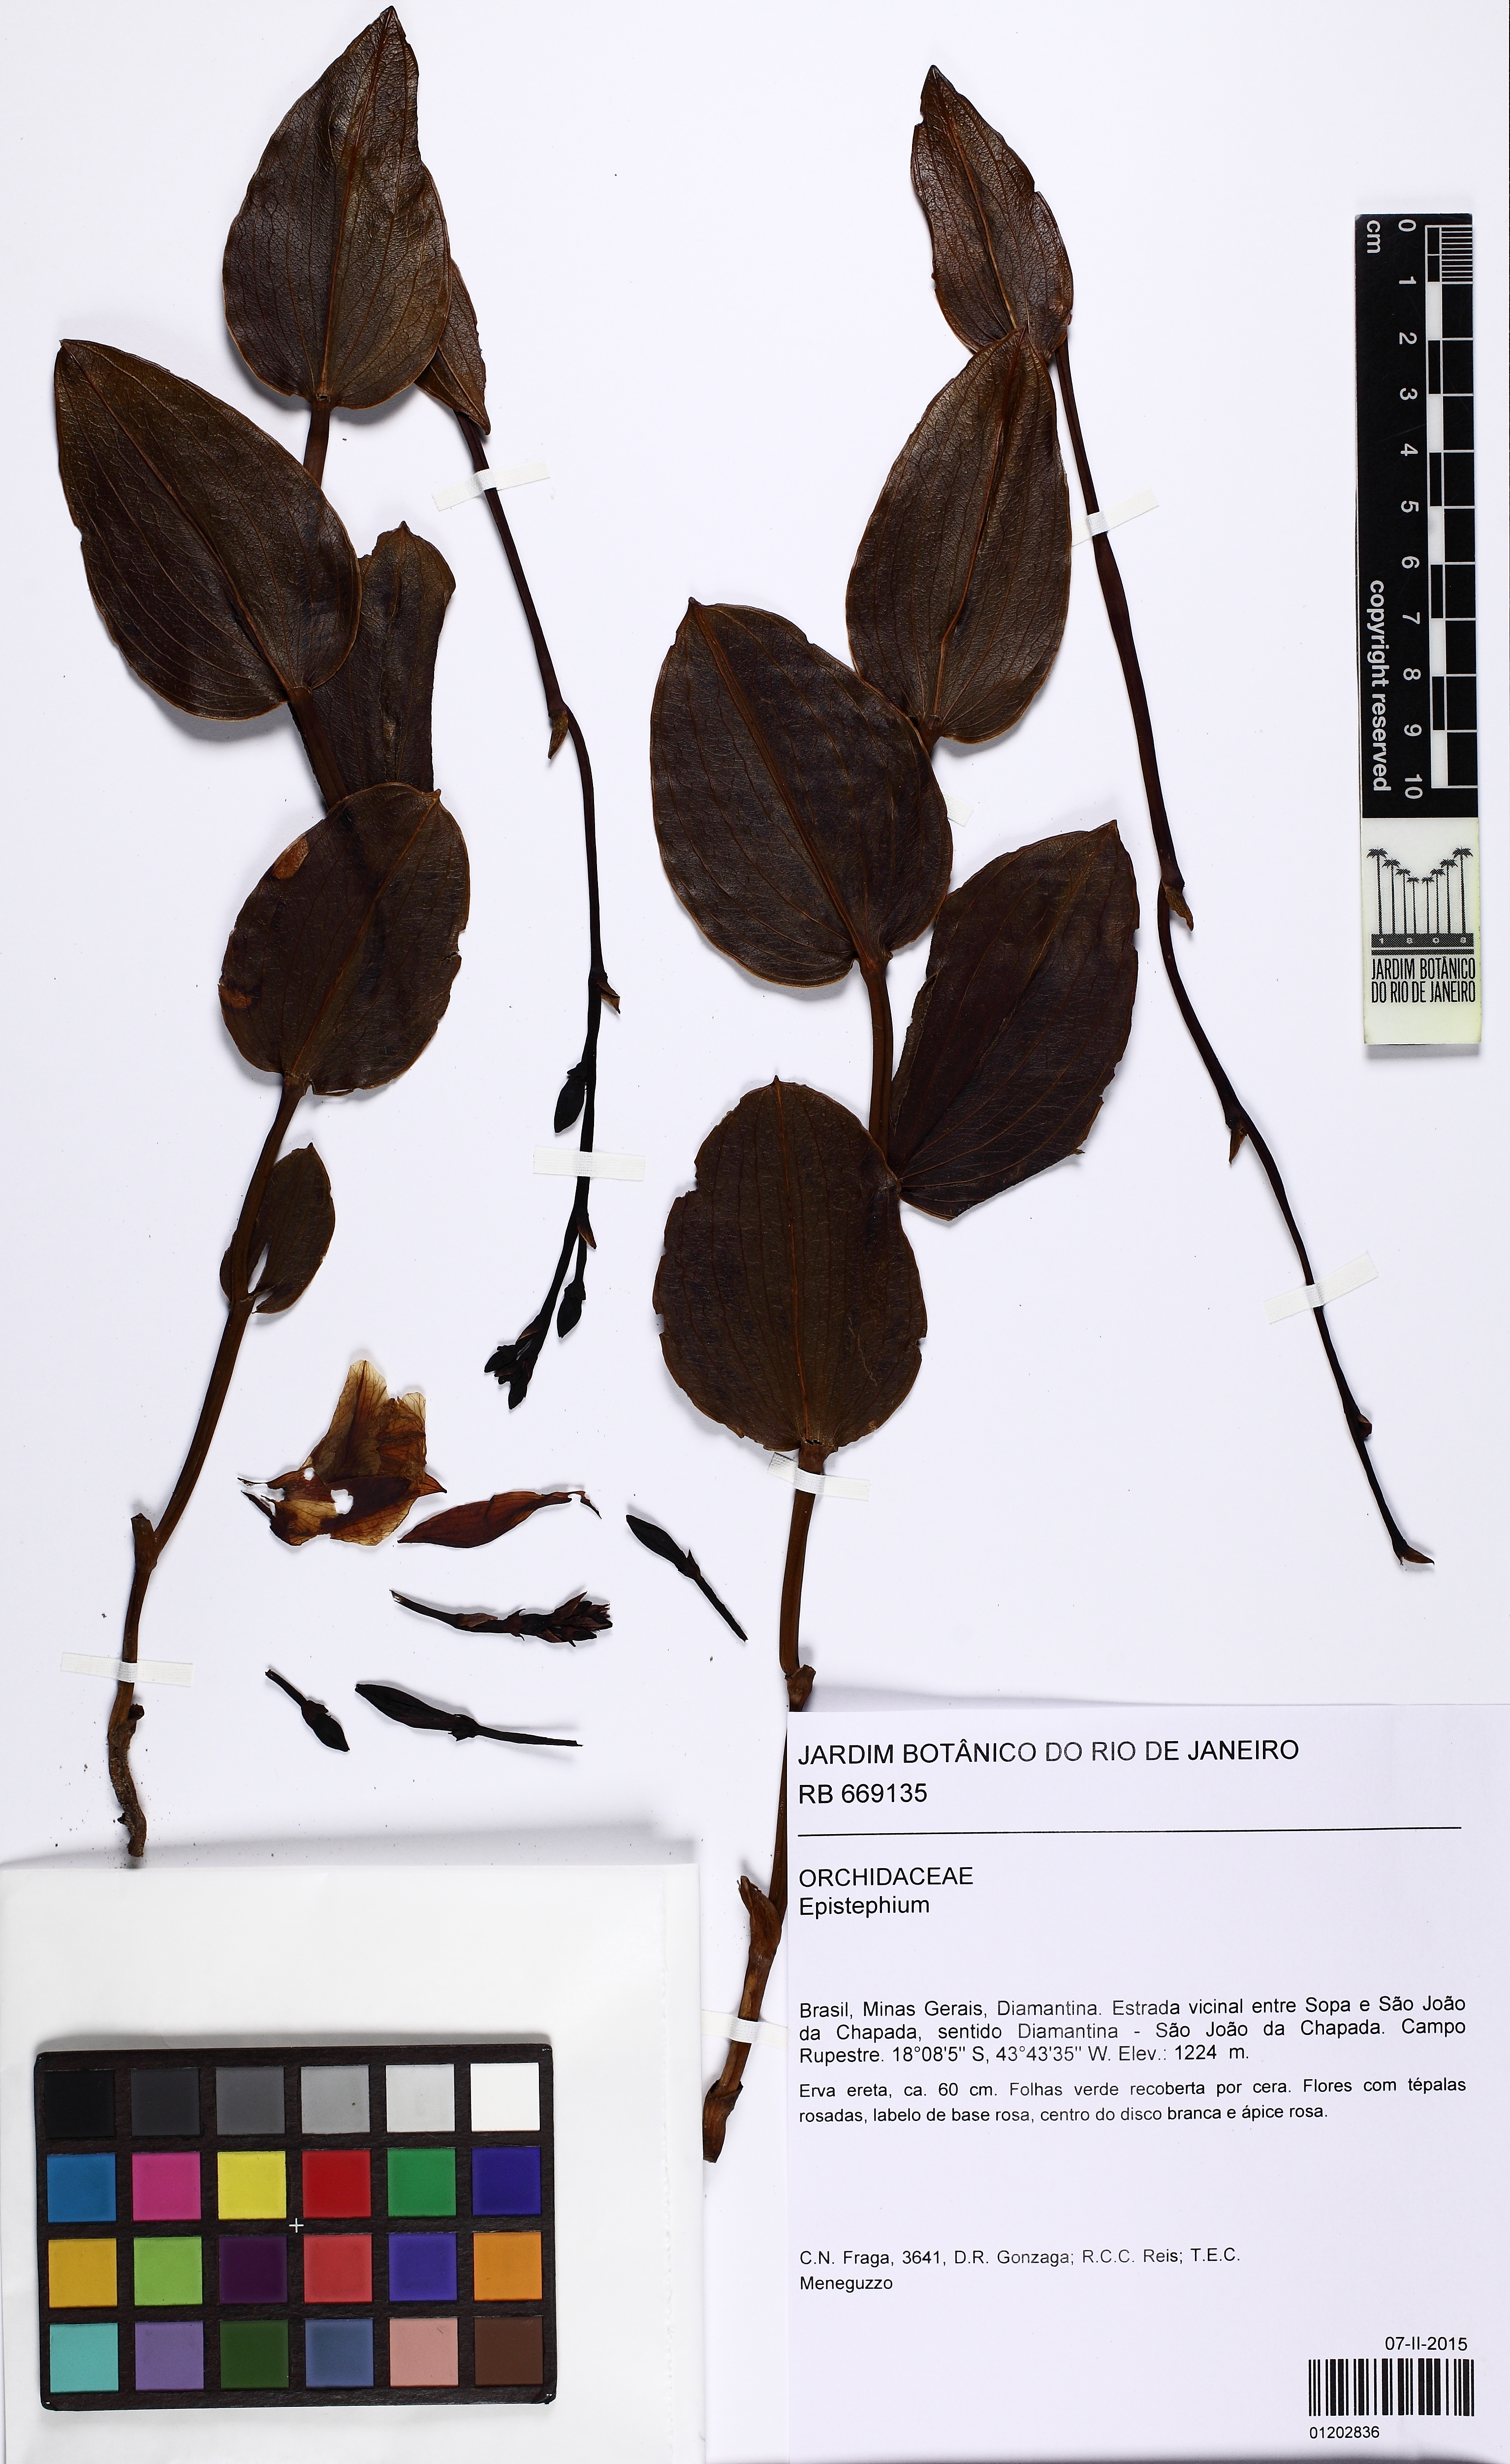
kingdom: Plantae
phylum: Tracheophyta
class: Liliopsida
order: Asparagales
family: Orchidaceae
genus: Epistephium
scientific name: Epistephium
